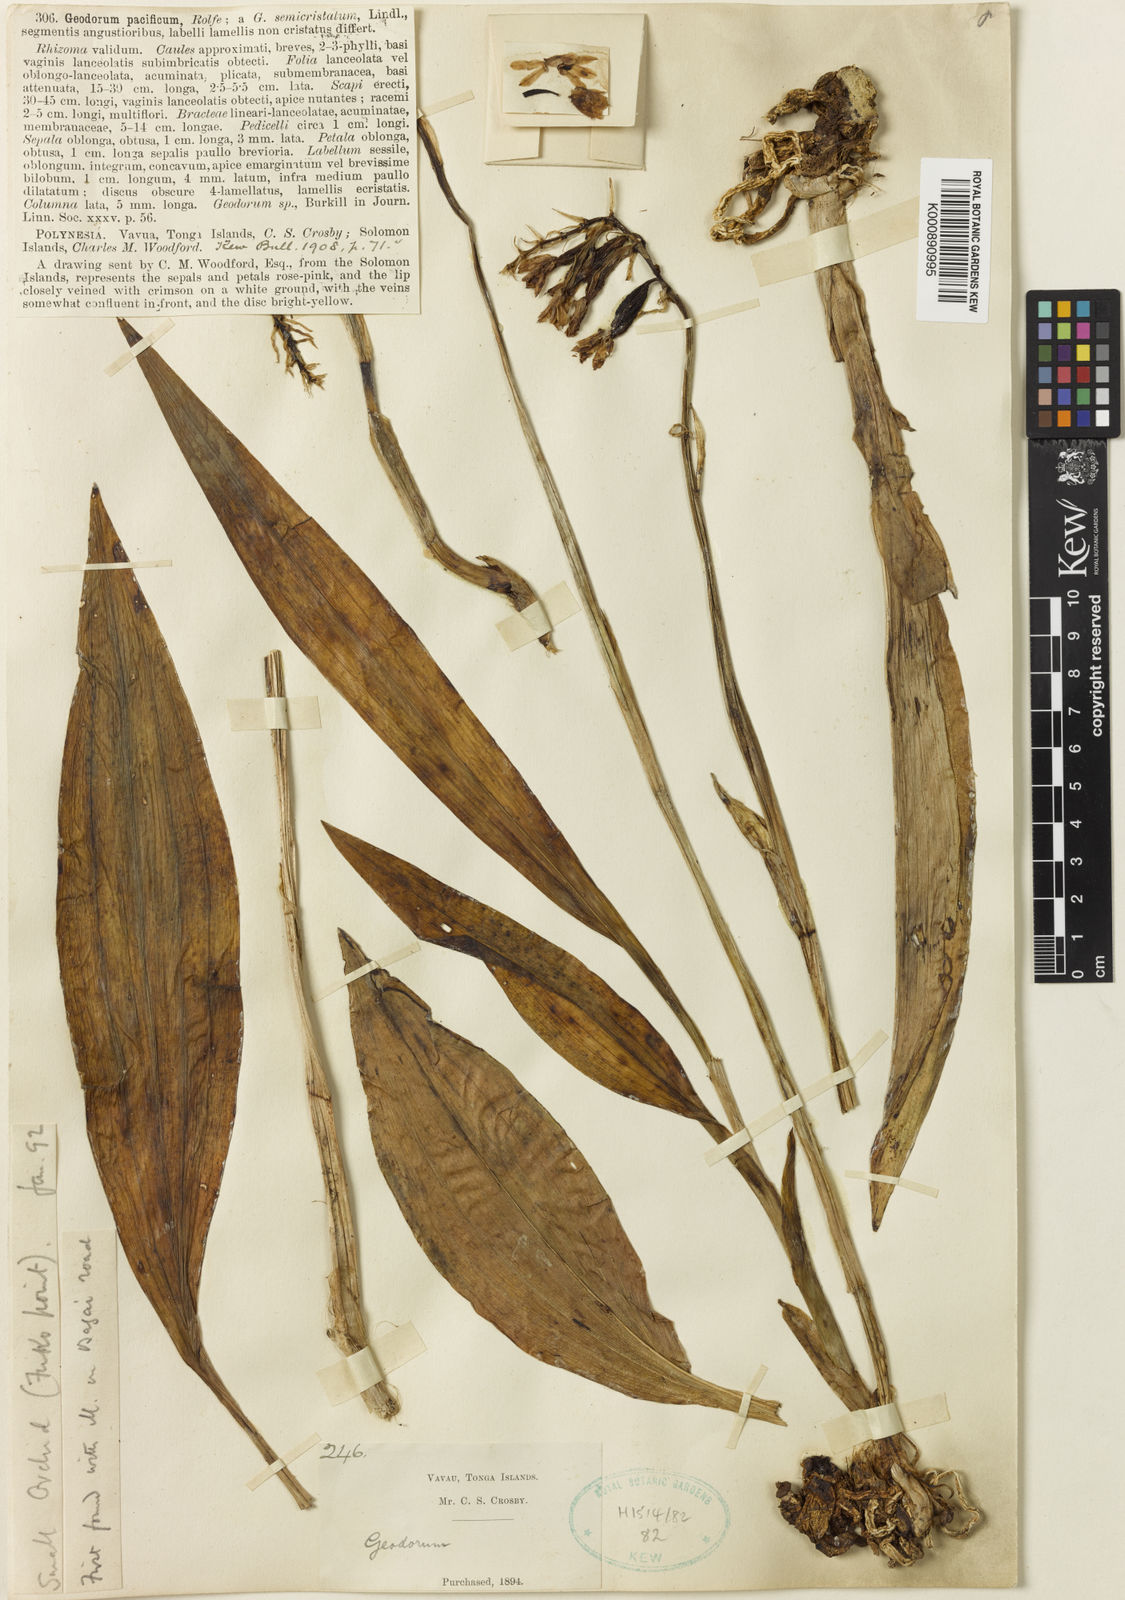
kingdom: Plantae
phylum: Tracheophyta
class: Liliopsida
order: Asparagales
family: Orchidaceae
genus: Eulophia
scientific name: Eulophia cernua
